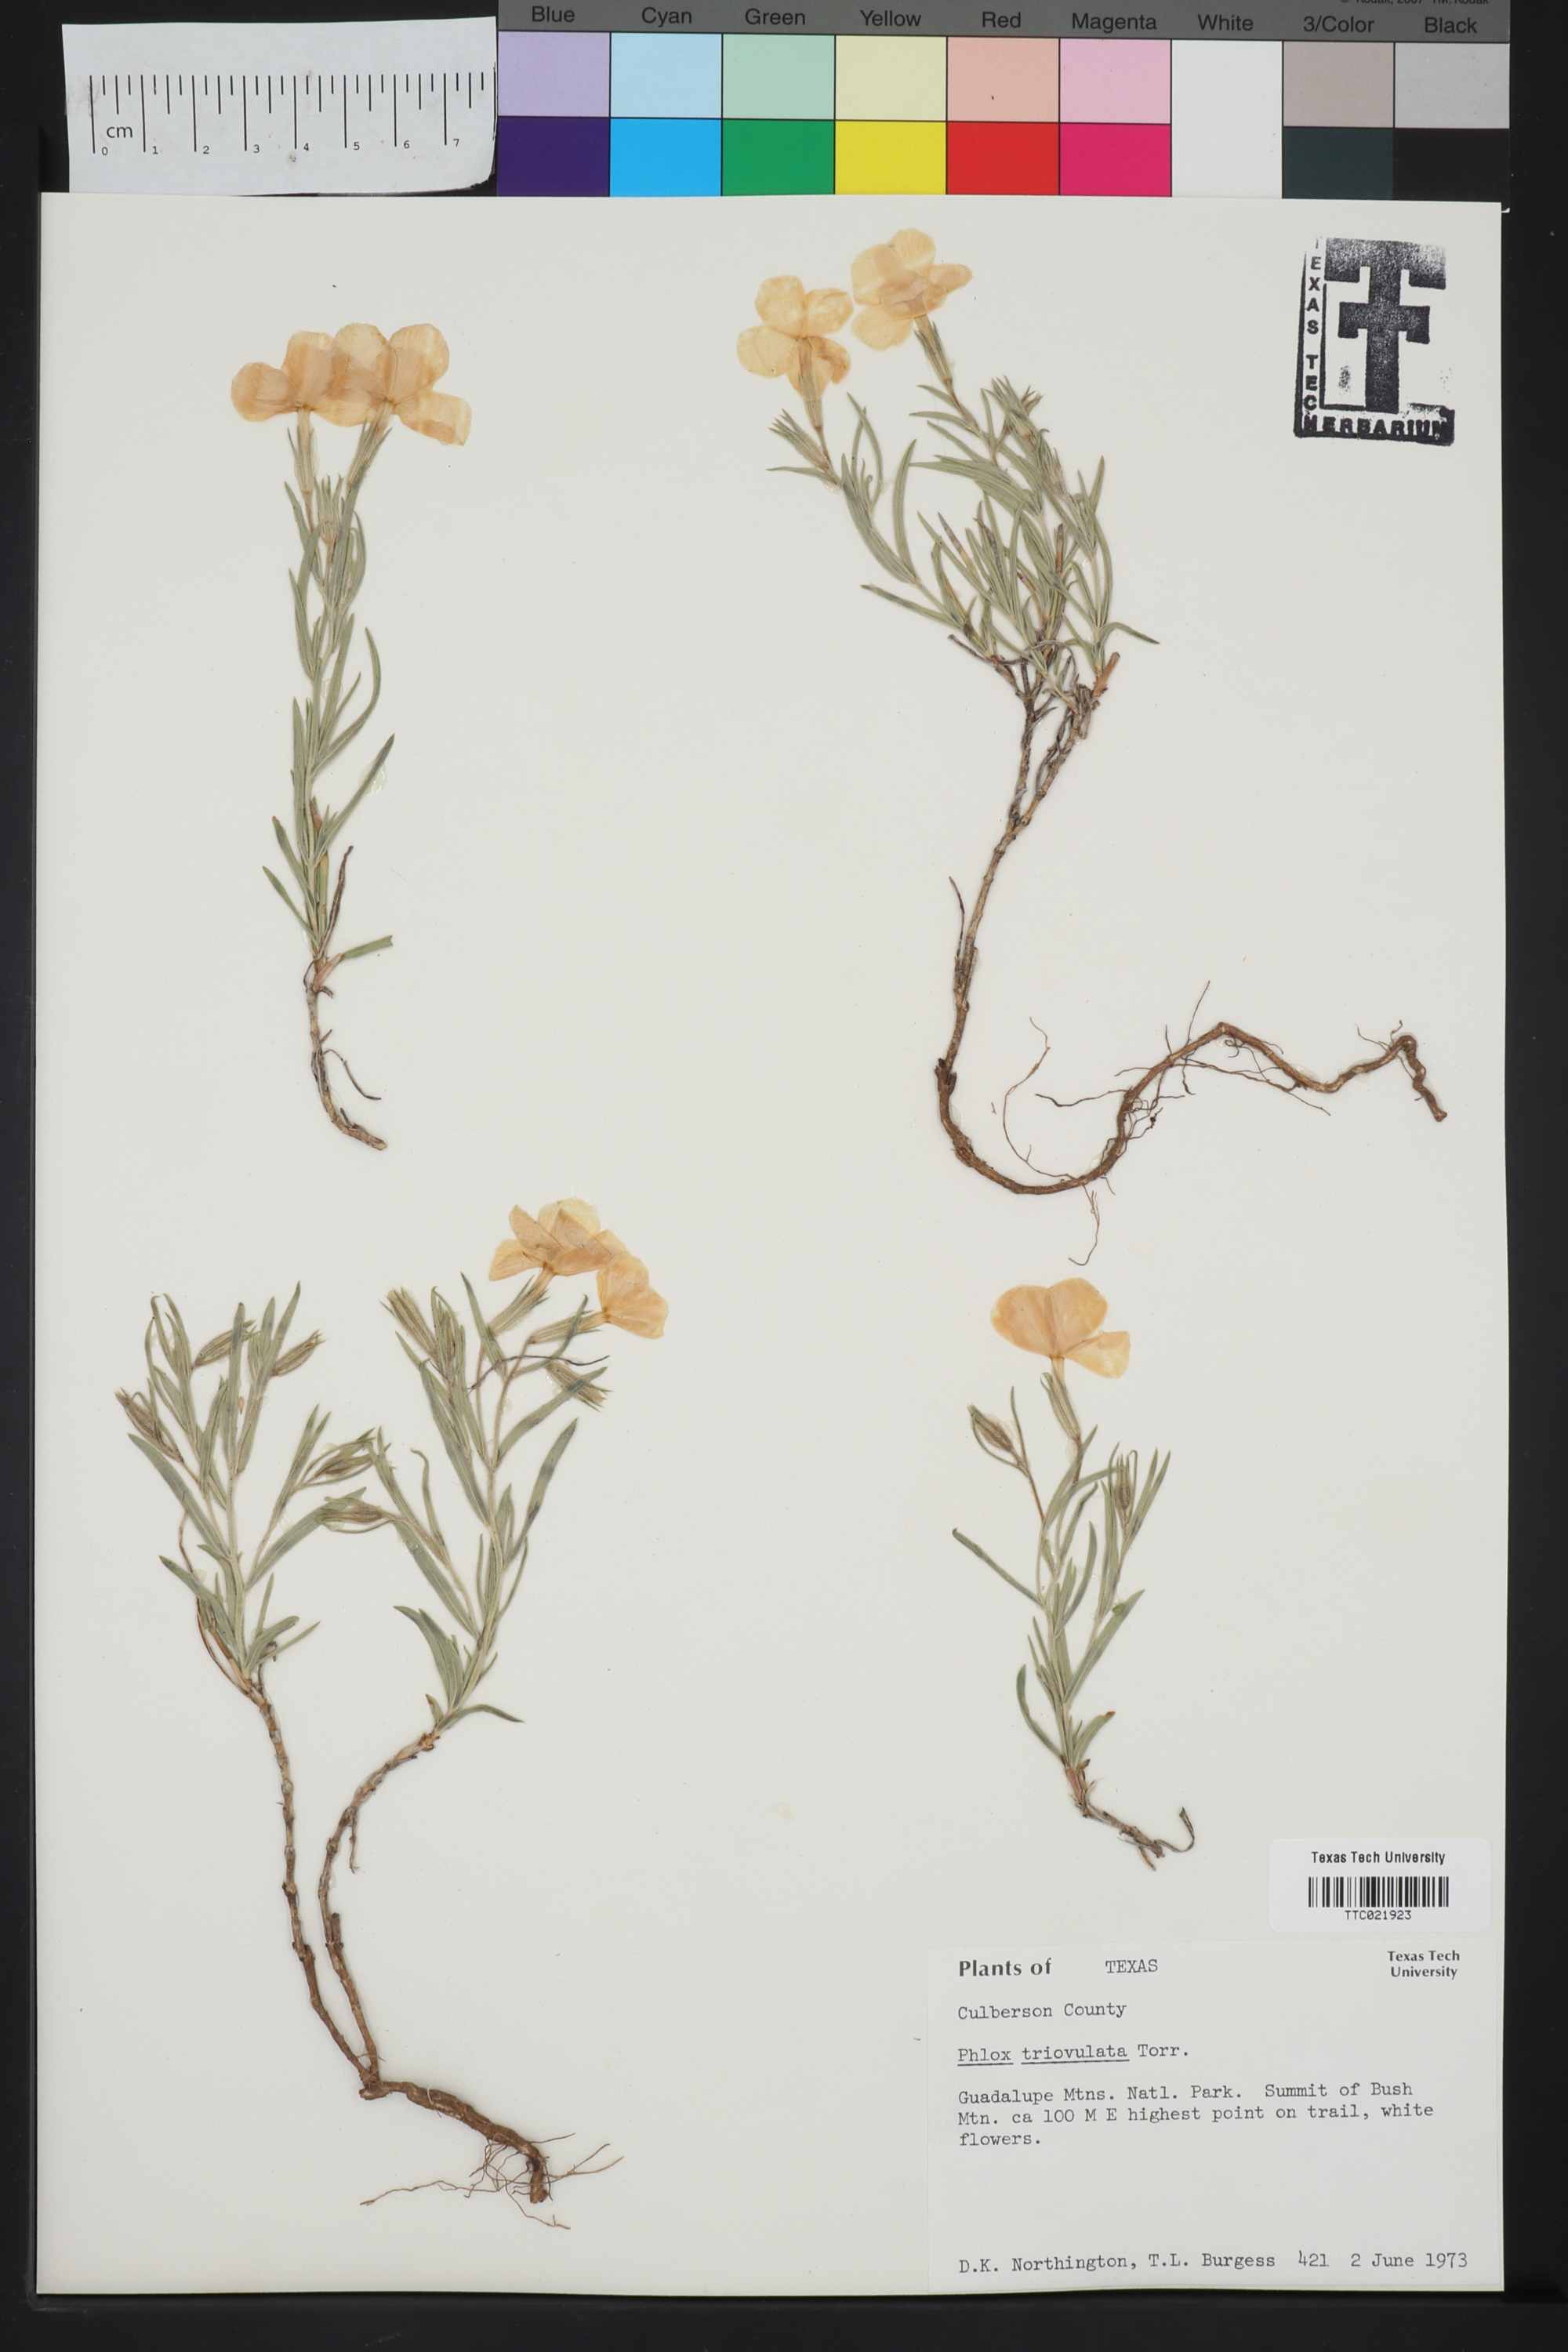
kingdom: Plantae
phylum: Tracheophyta
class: Magnoliopsida
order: Ericales
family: Polemoniaceae
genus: Phlox
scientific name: Phlox triovulata
